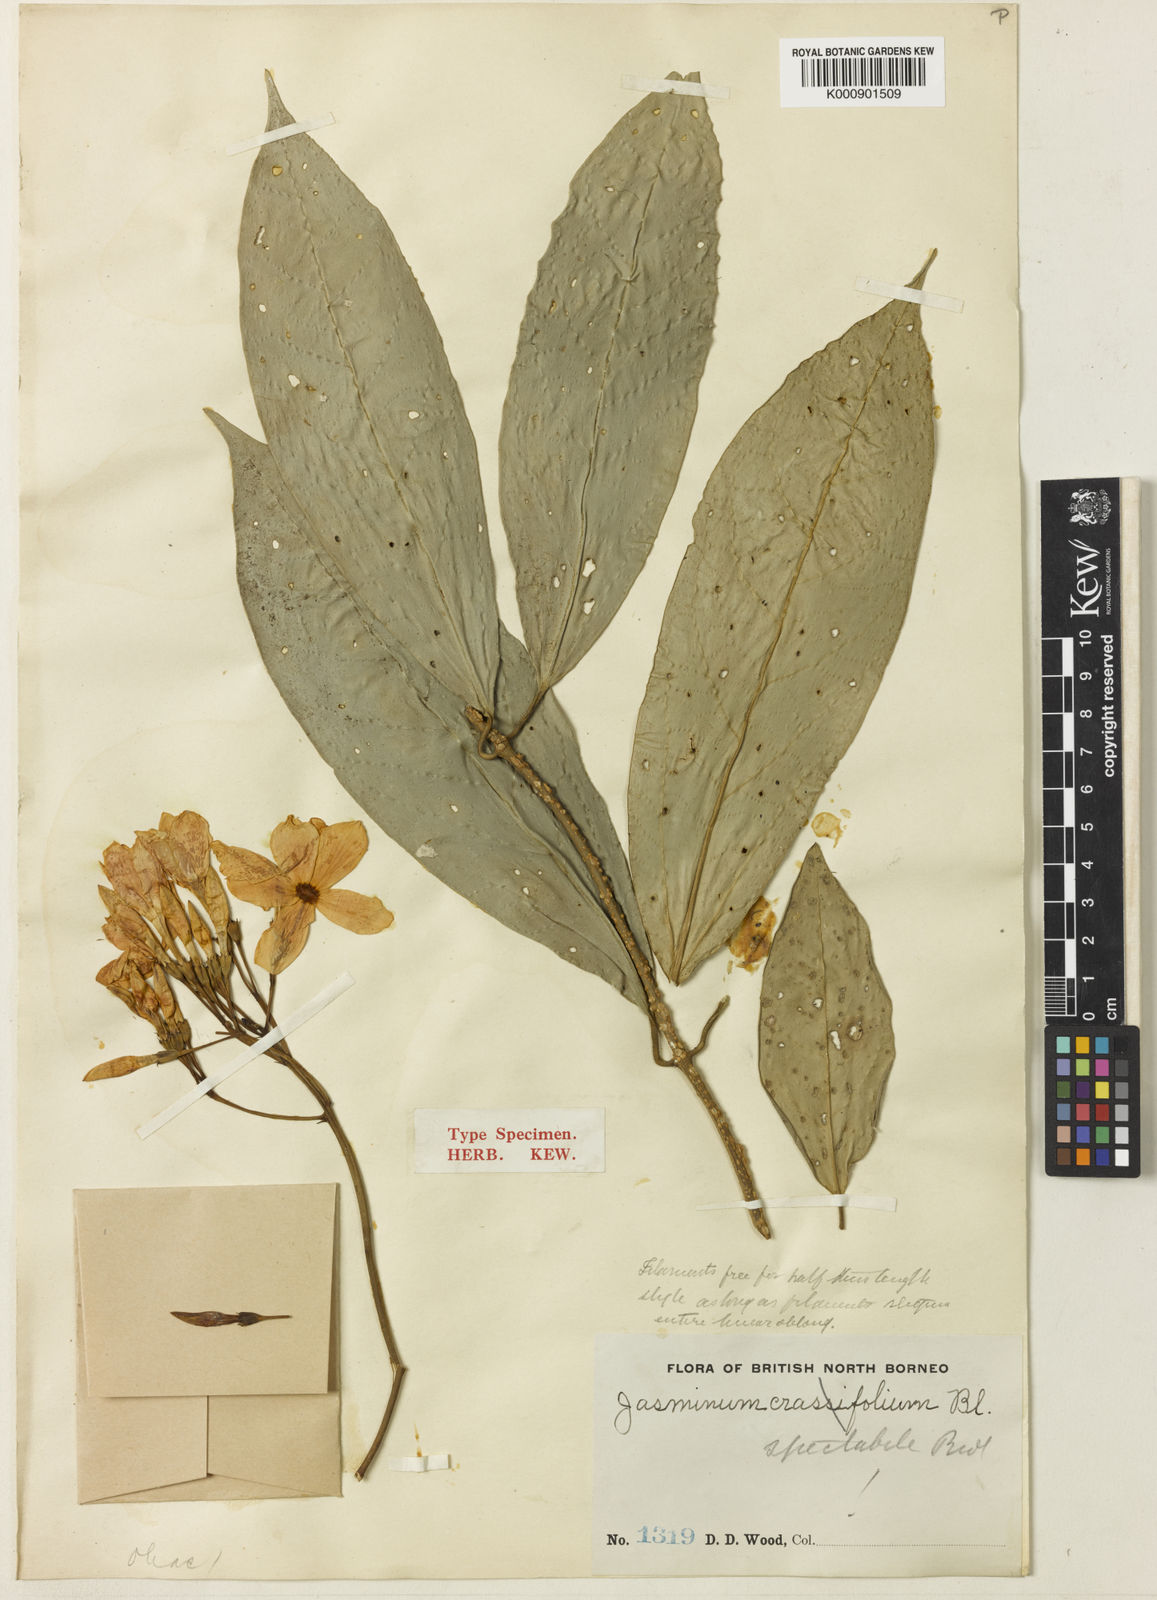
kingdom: Plantae
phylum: Tracheophyta
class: Magnoliopsida
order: Lamiales
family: Oleaceae
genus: Jasminum
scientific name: Jasminum spectabile
